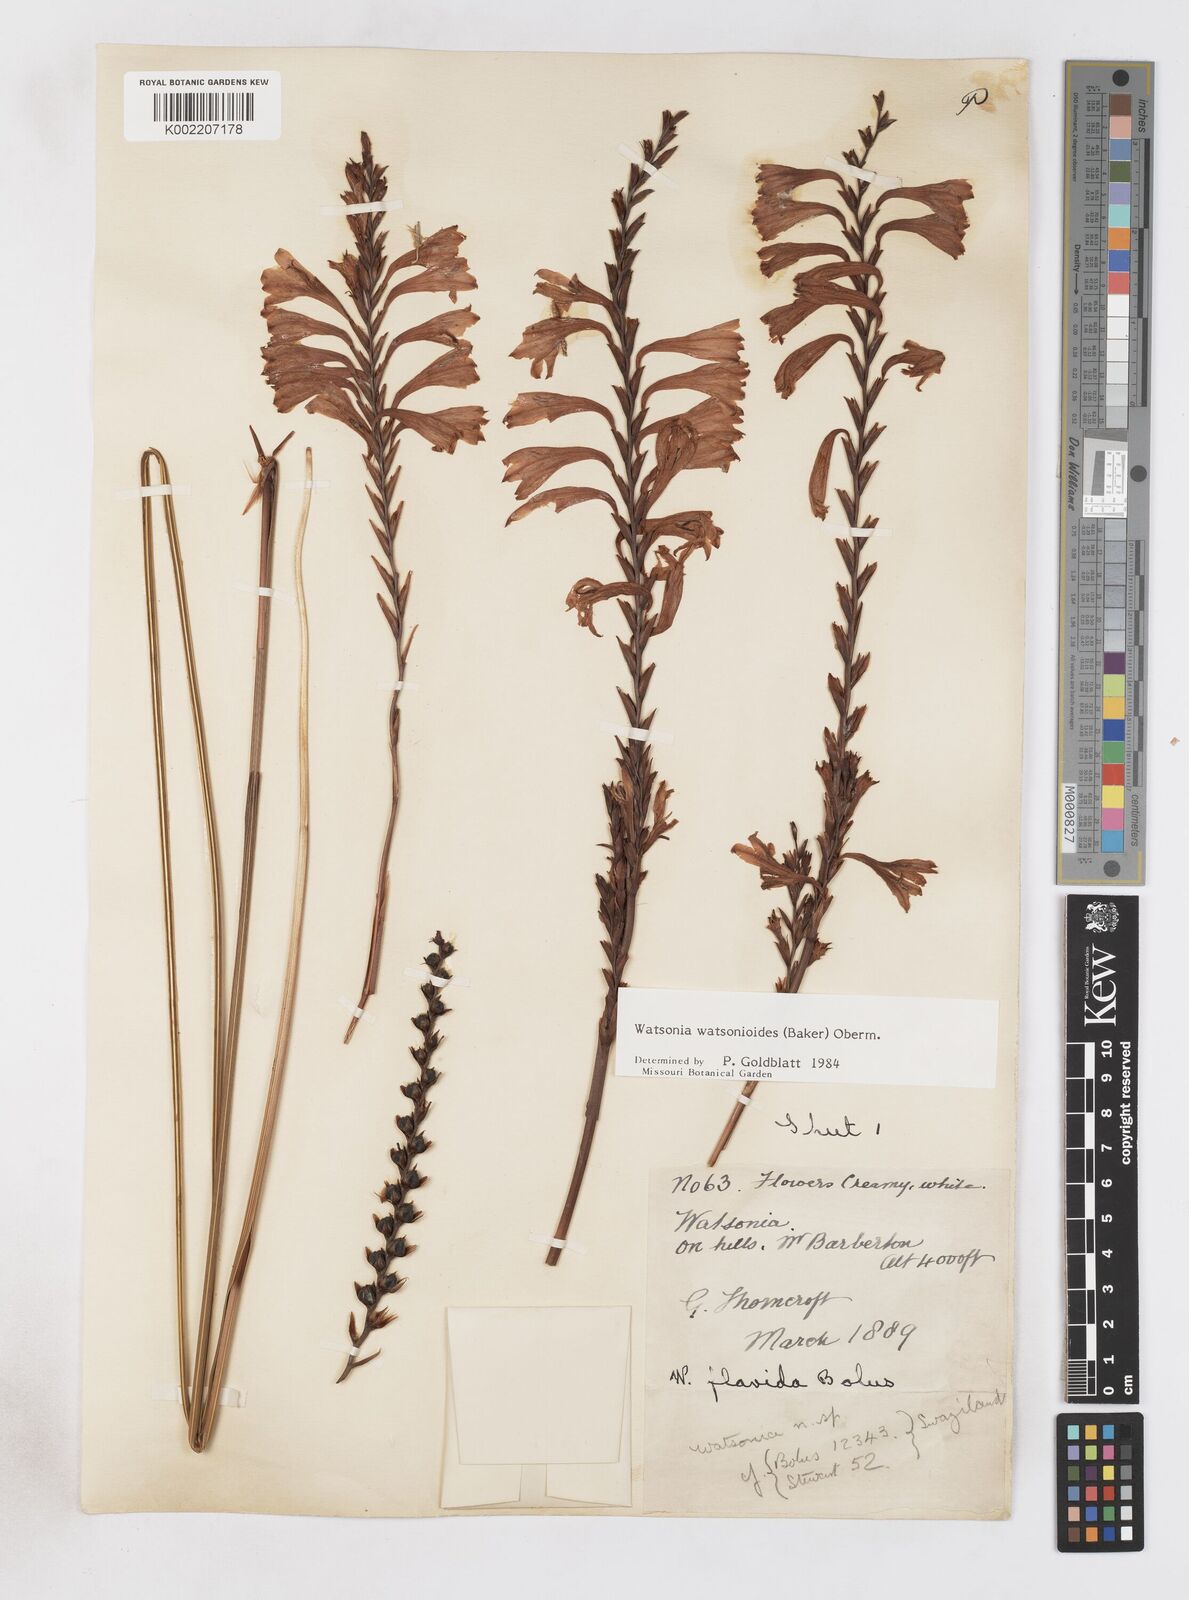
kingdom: Plantae
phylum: Tracheophyta
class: Liliopsida
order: Asparagales
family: Iridaceae
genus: Watsonia
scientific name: Watsonia watsonioides
